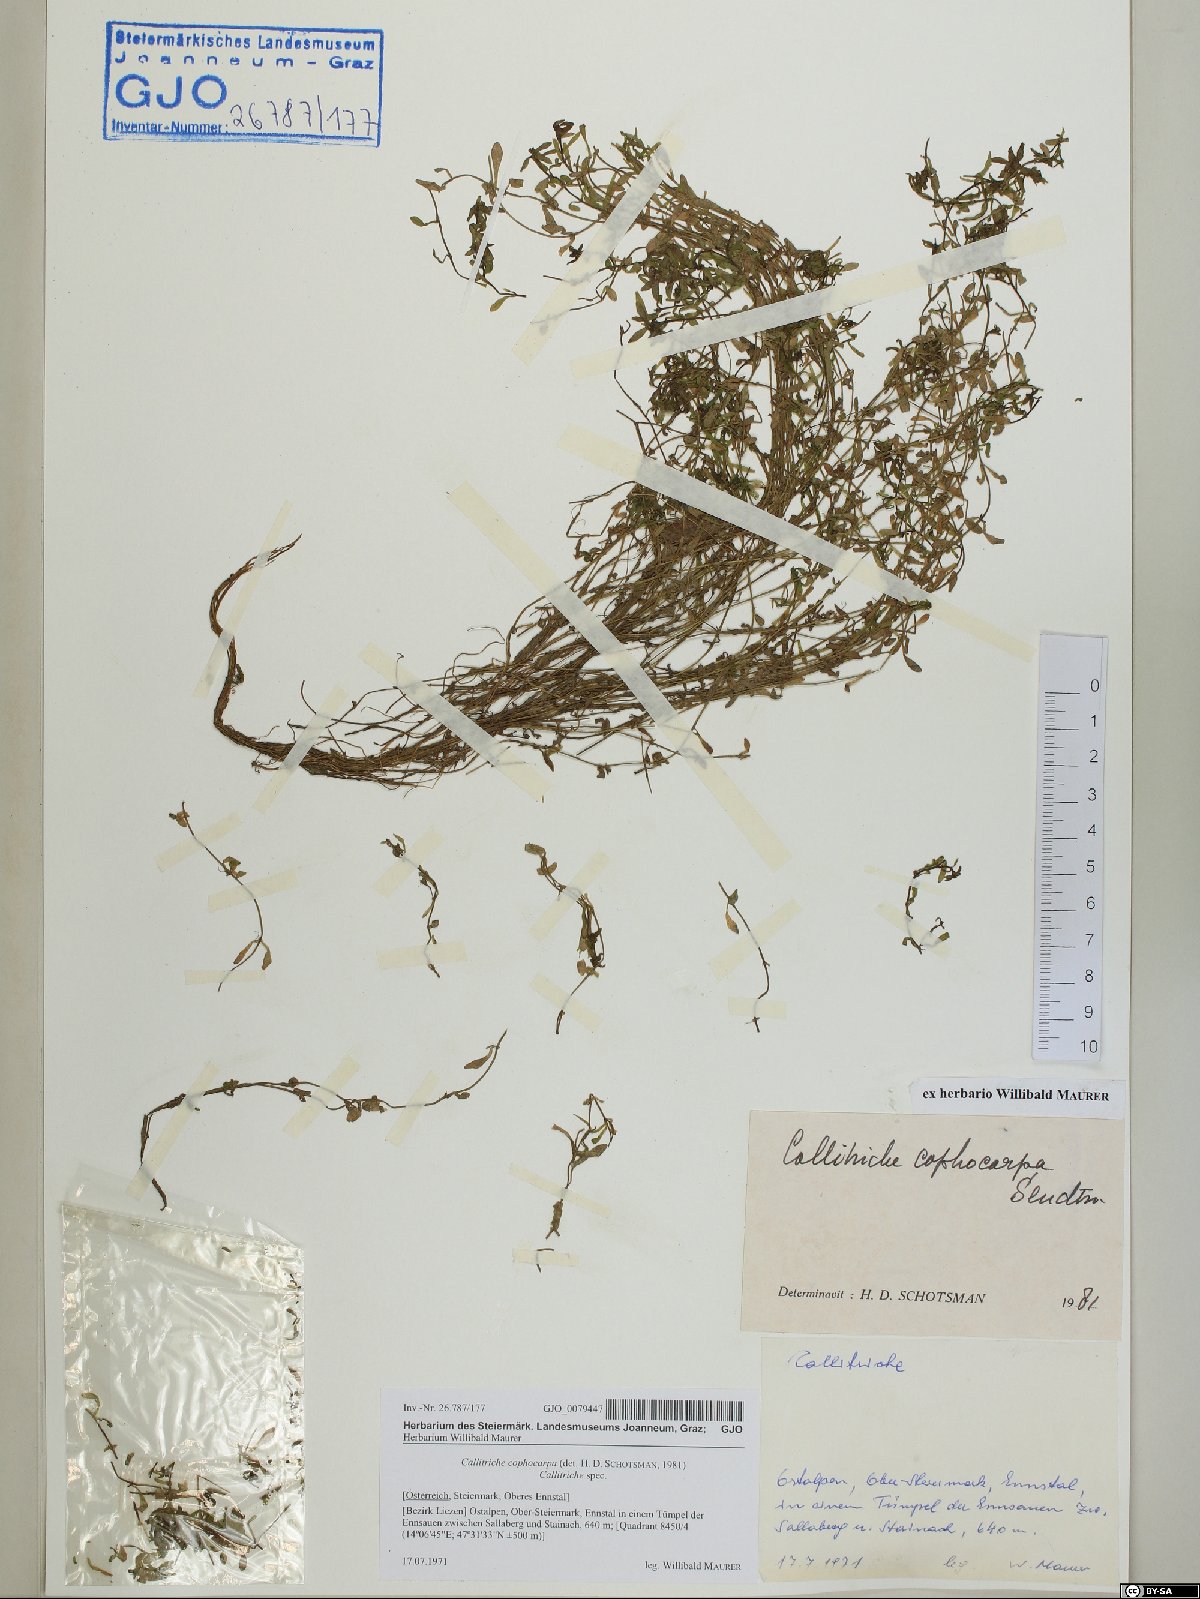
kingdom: Plantae
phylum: Tracheophyta
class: Magnoliopsida
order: Lamiales
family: Plantaginaceae
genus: Callitriche
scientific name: Callitriche cophocarpa
